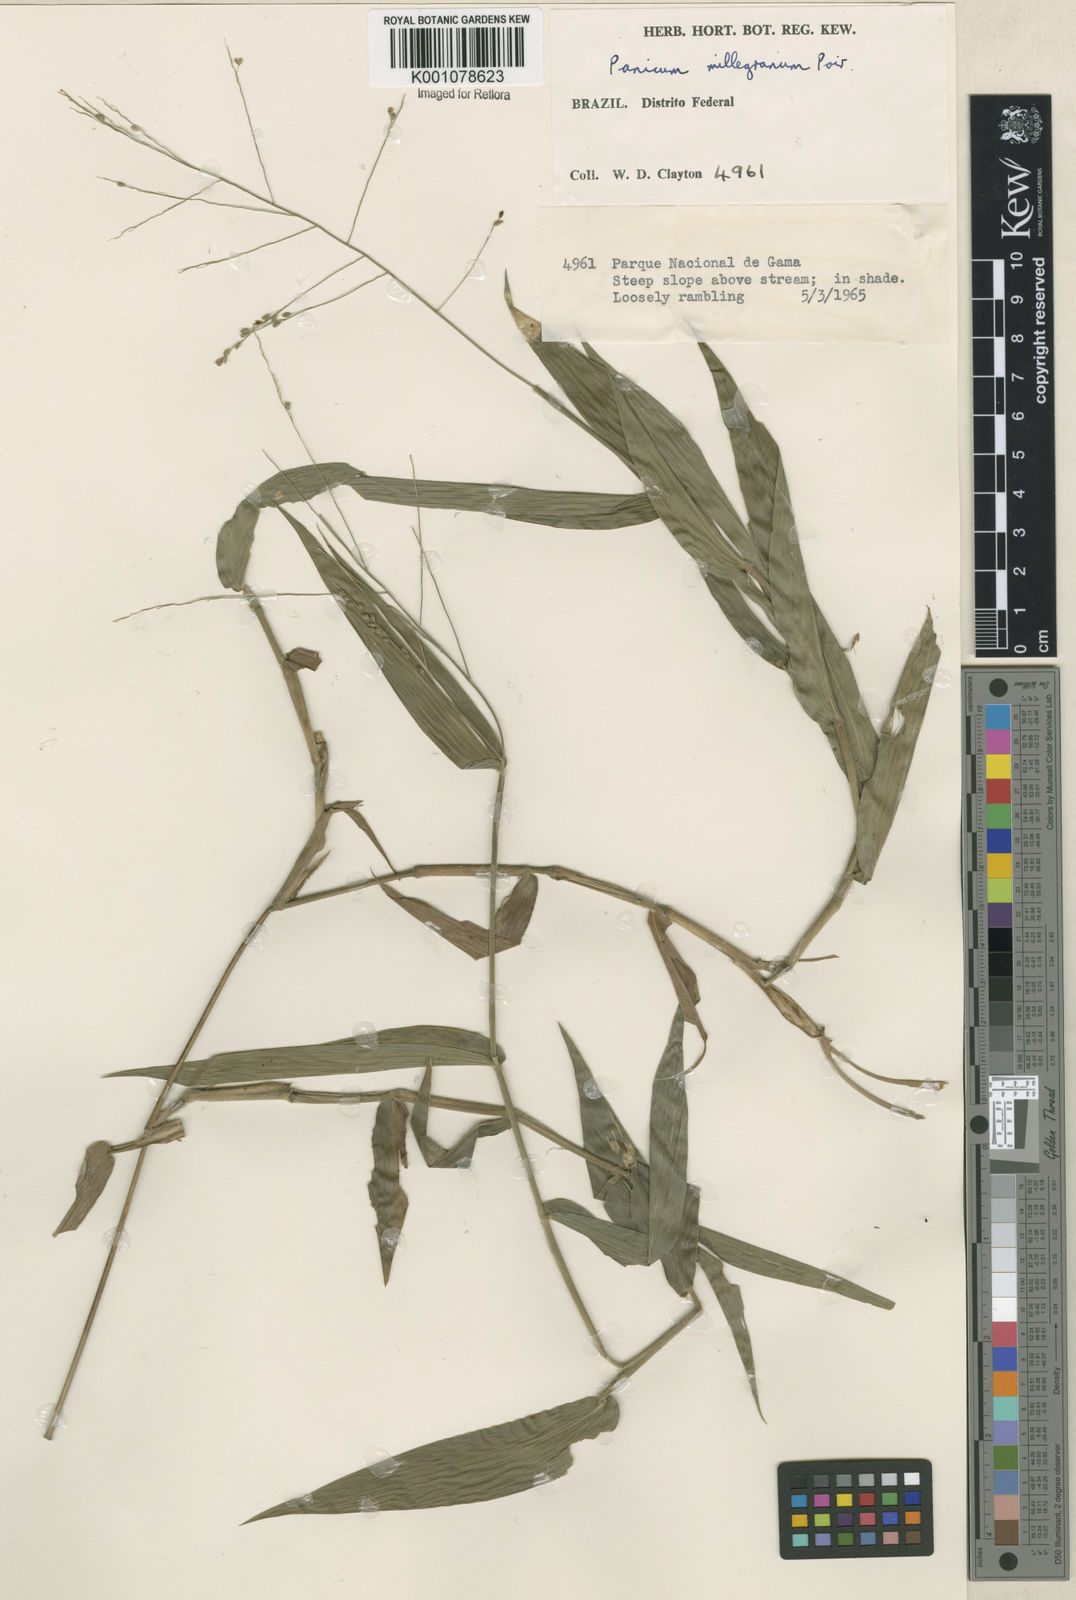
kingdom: Plantae
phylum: Tracheophyta
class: Liliopsida
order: Poales
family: Poaceae
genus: Panicum
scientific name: Panicum sellowii
